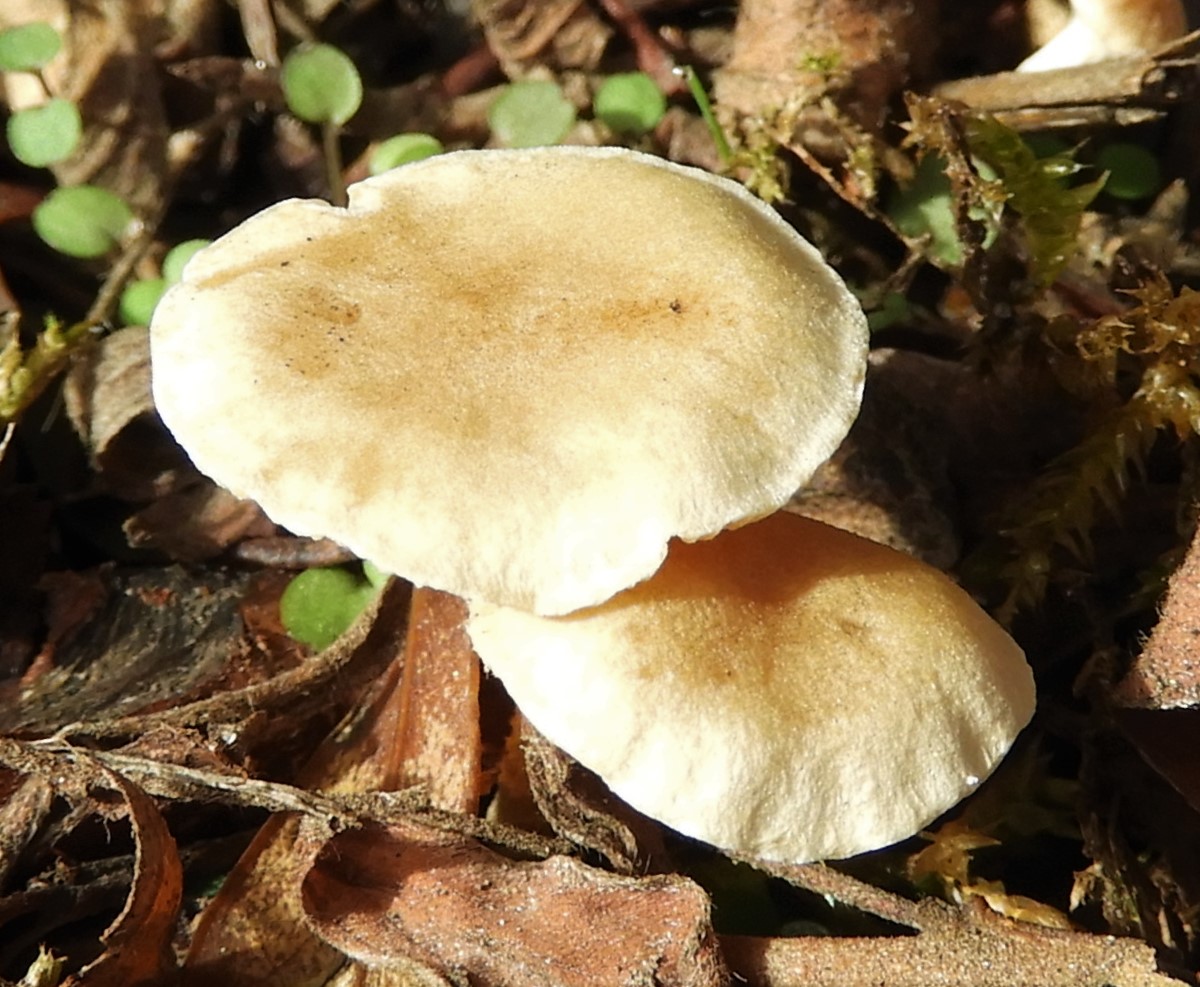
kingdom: Fungi
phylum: Basidiomycota
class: Agaricomycetes
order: Agaricales
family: Tubariaceae
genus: Tubaria
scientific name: Tubaria dispersa
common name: tjørne-fnughat
